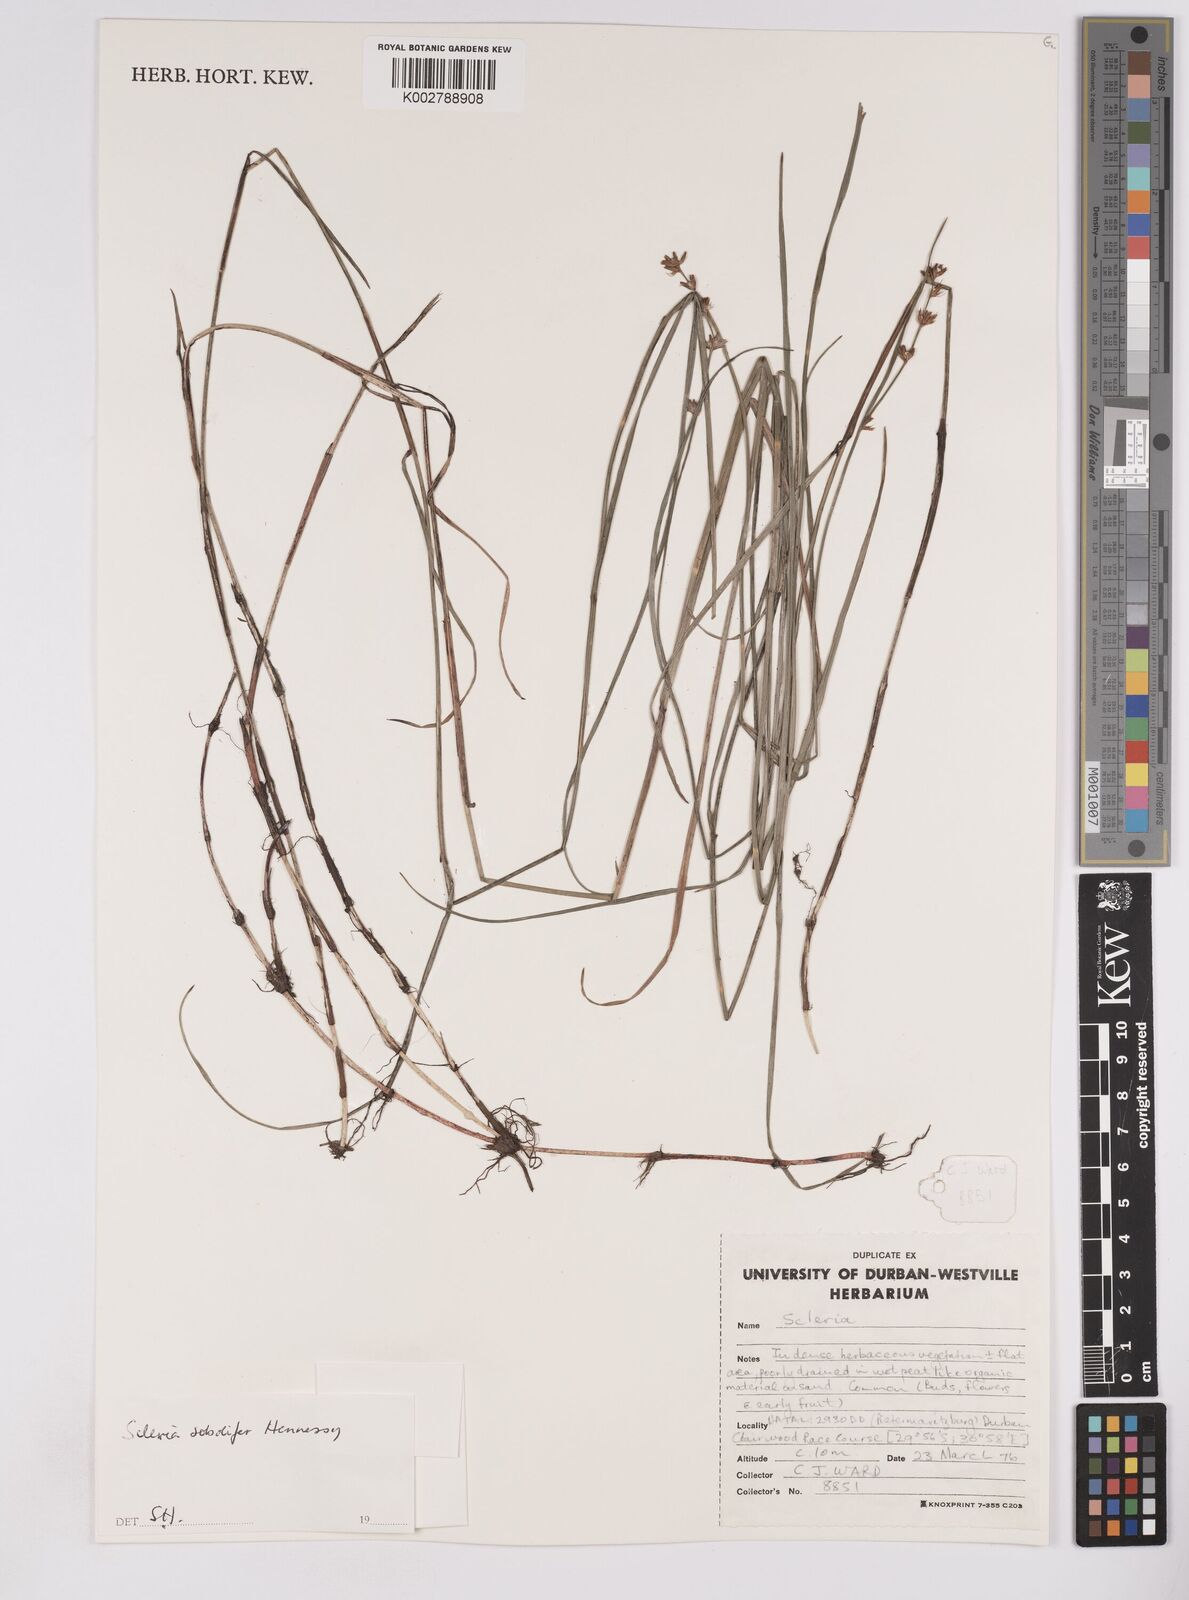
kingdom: Plantae
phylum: Tracheophyta
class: Liliopsida
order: Poales
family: Cyperaceae
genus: Scleria
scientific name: Scleria sobolifera
